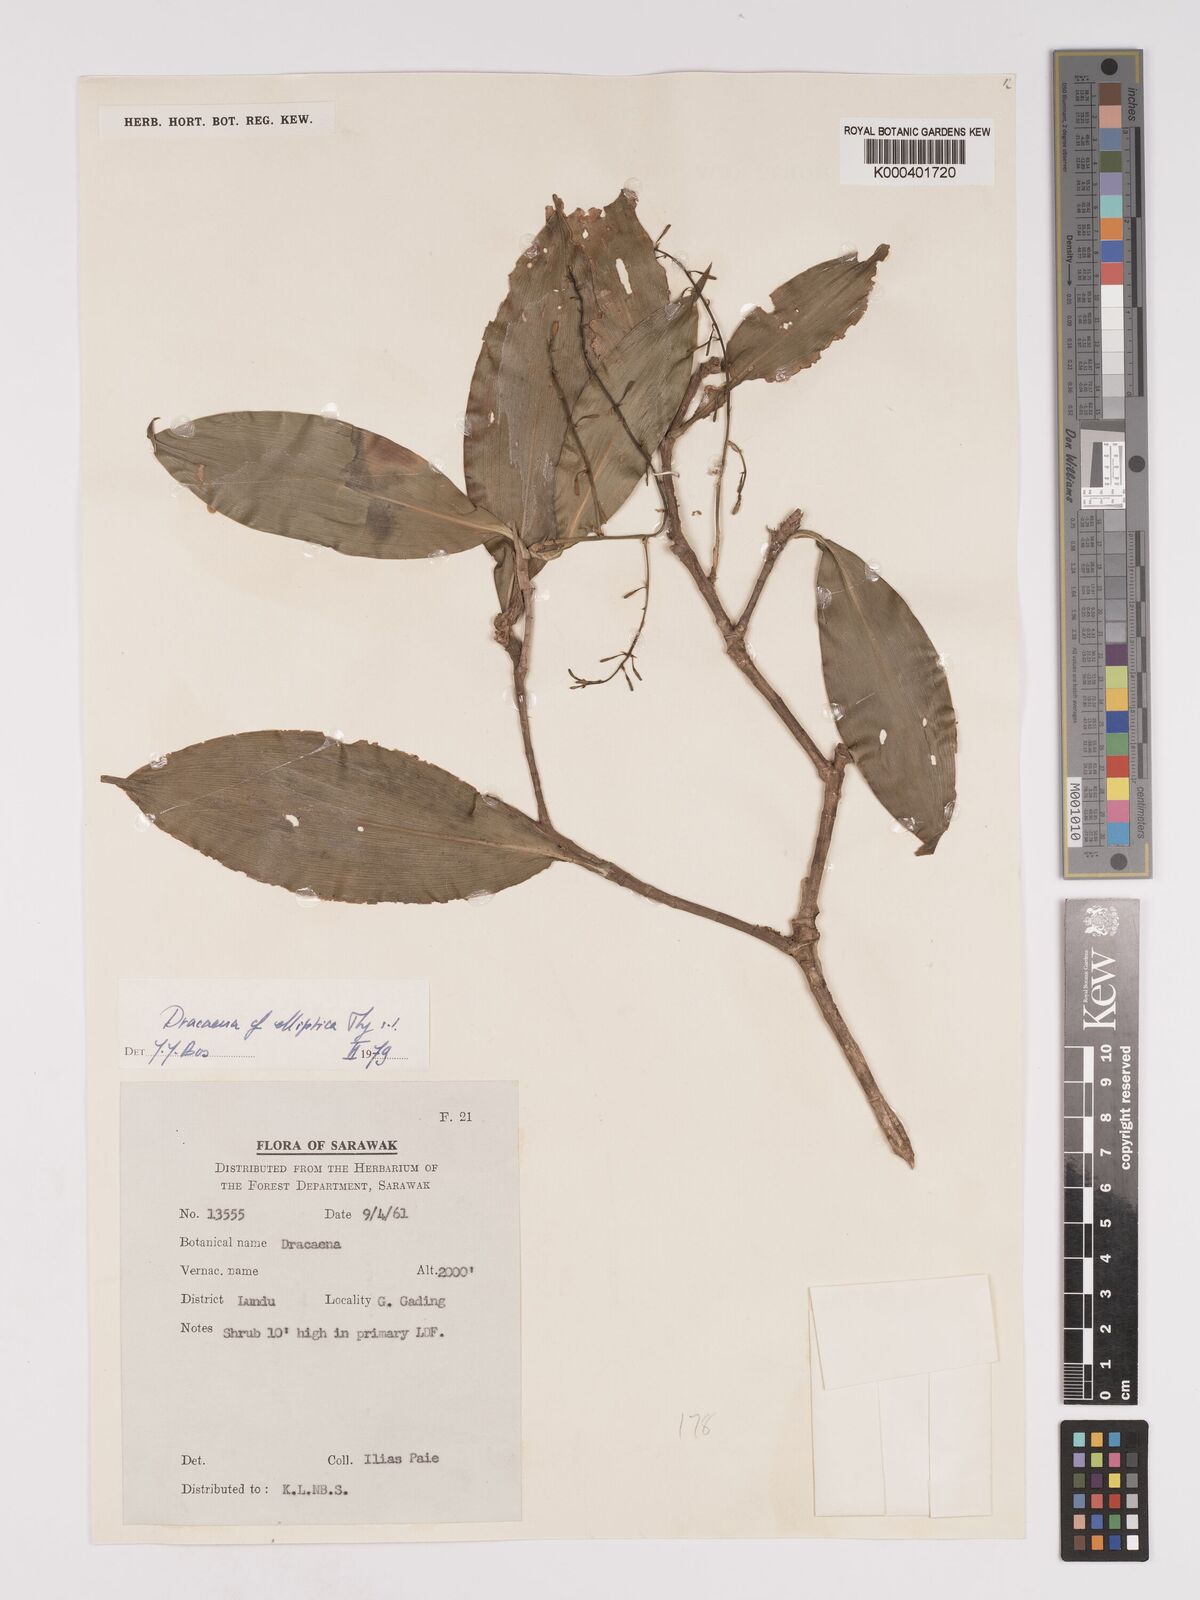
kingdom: Plantae
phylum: Tracheophyta
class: Liliopsida
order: Asparagales
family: Asparagaceae
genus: Dracaena
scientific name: Dracaena elliptica
